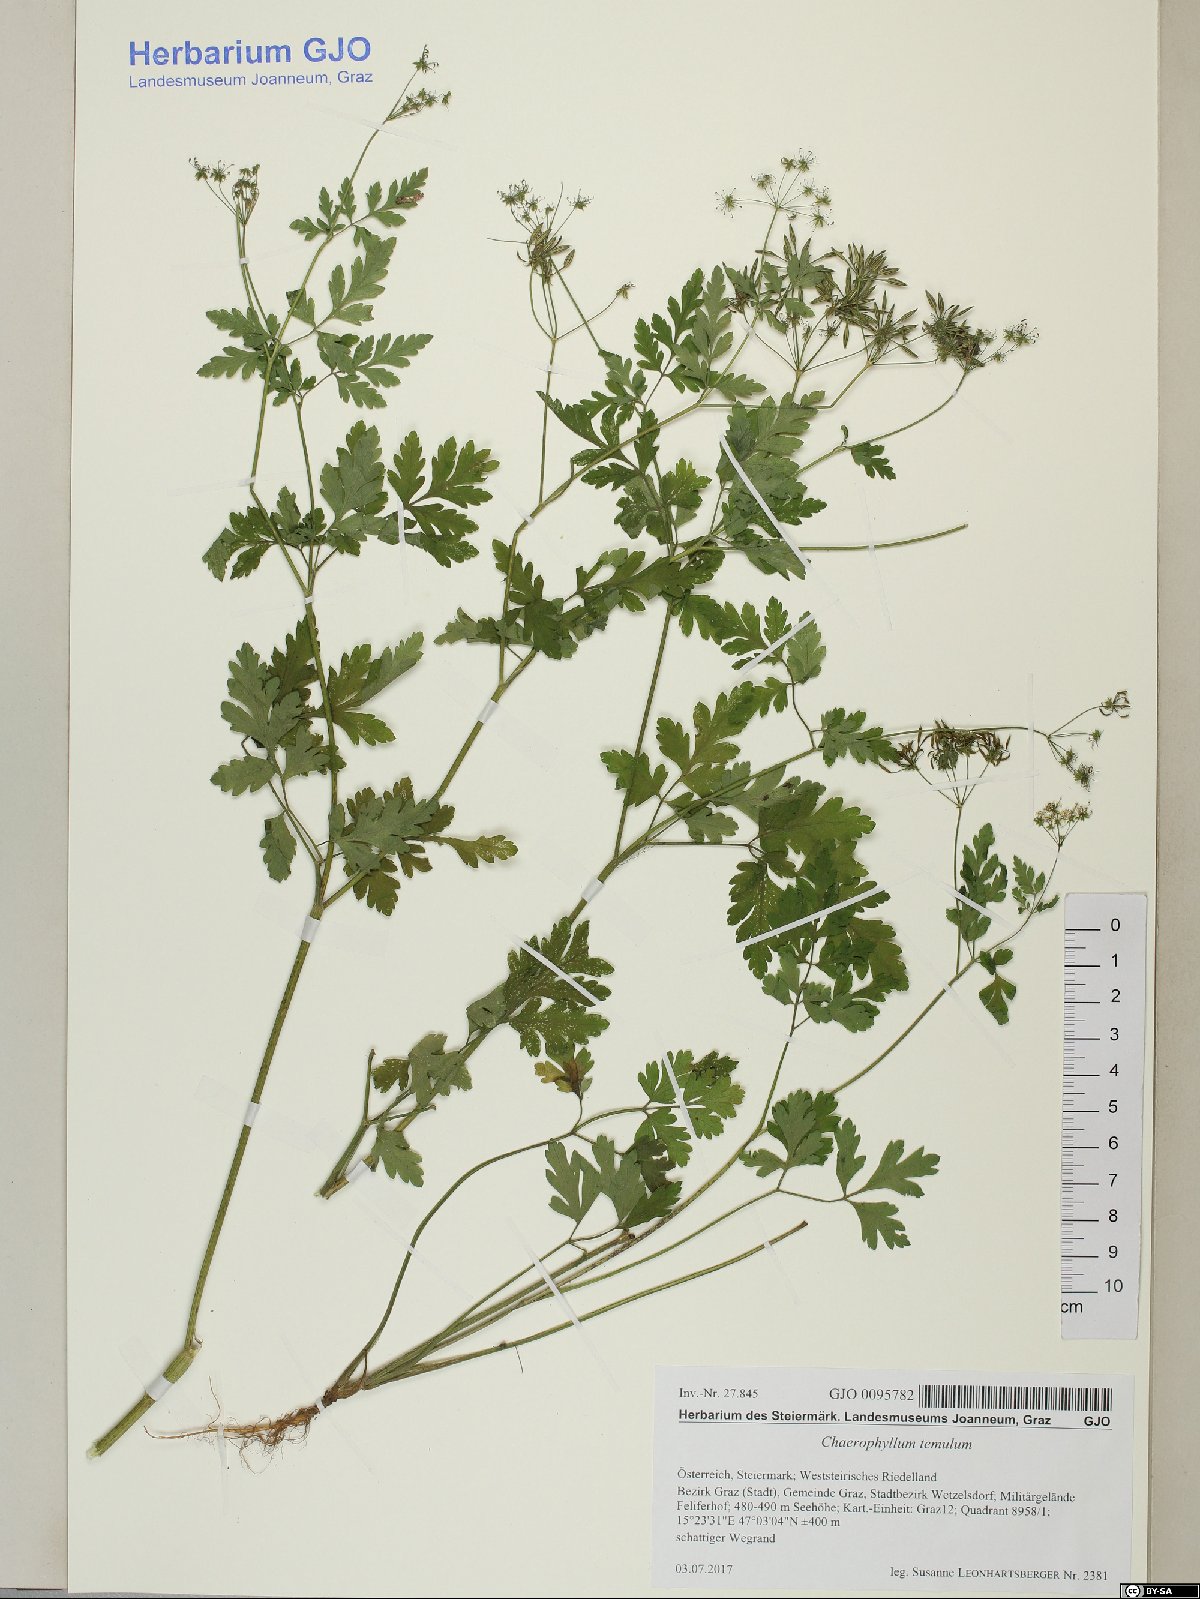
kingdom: Plantae
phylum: Tracheophyta
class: Magnoliopsida
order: Apiales
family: Apiaceae
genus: Chaerophyllum
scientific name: Chaerophyllum temulum
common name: Rough chervil
